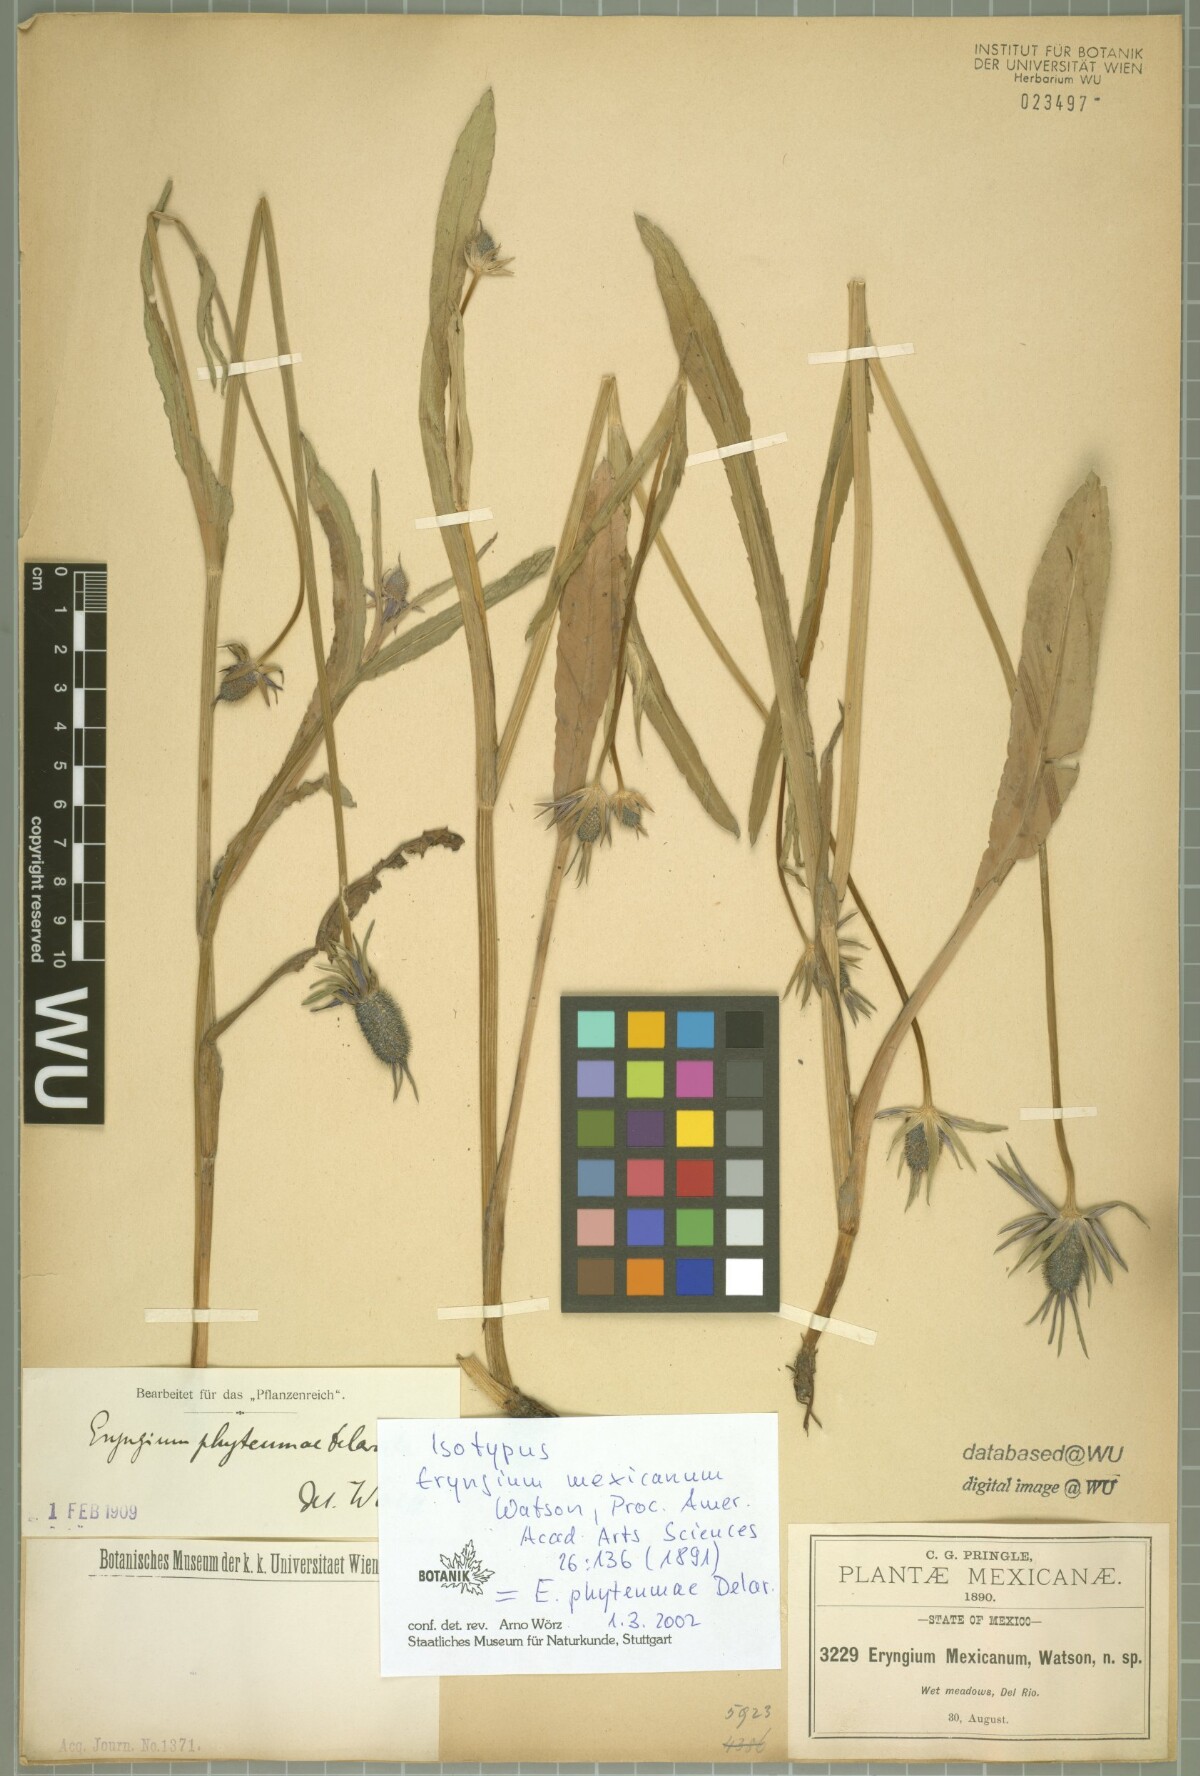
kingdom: Plantae
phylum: Tracheophyta
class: Magnoliopsida
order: Apiales
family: Apiaceae
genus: Eryngium
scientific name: Eryngium phyteumae
